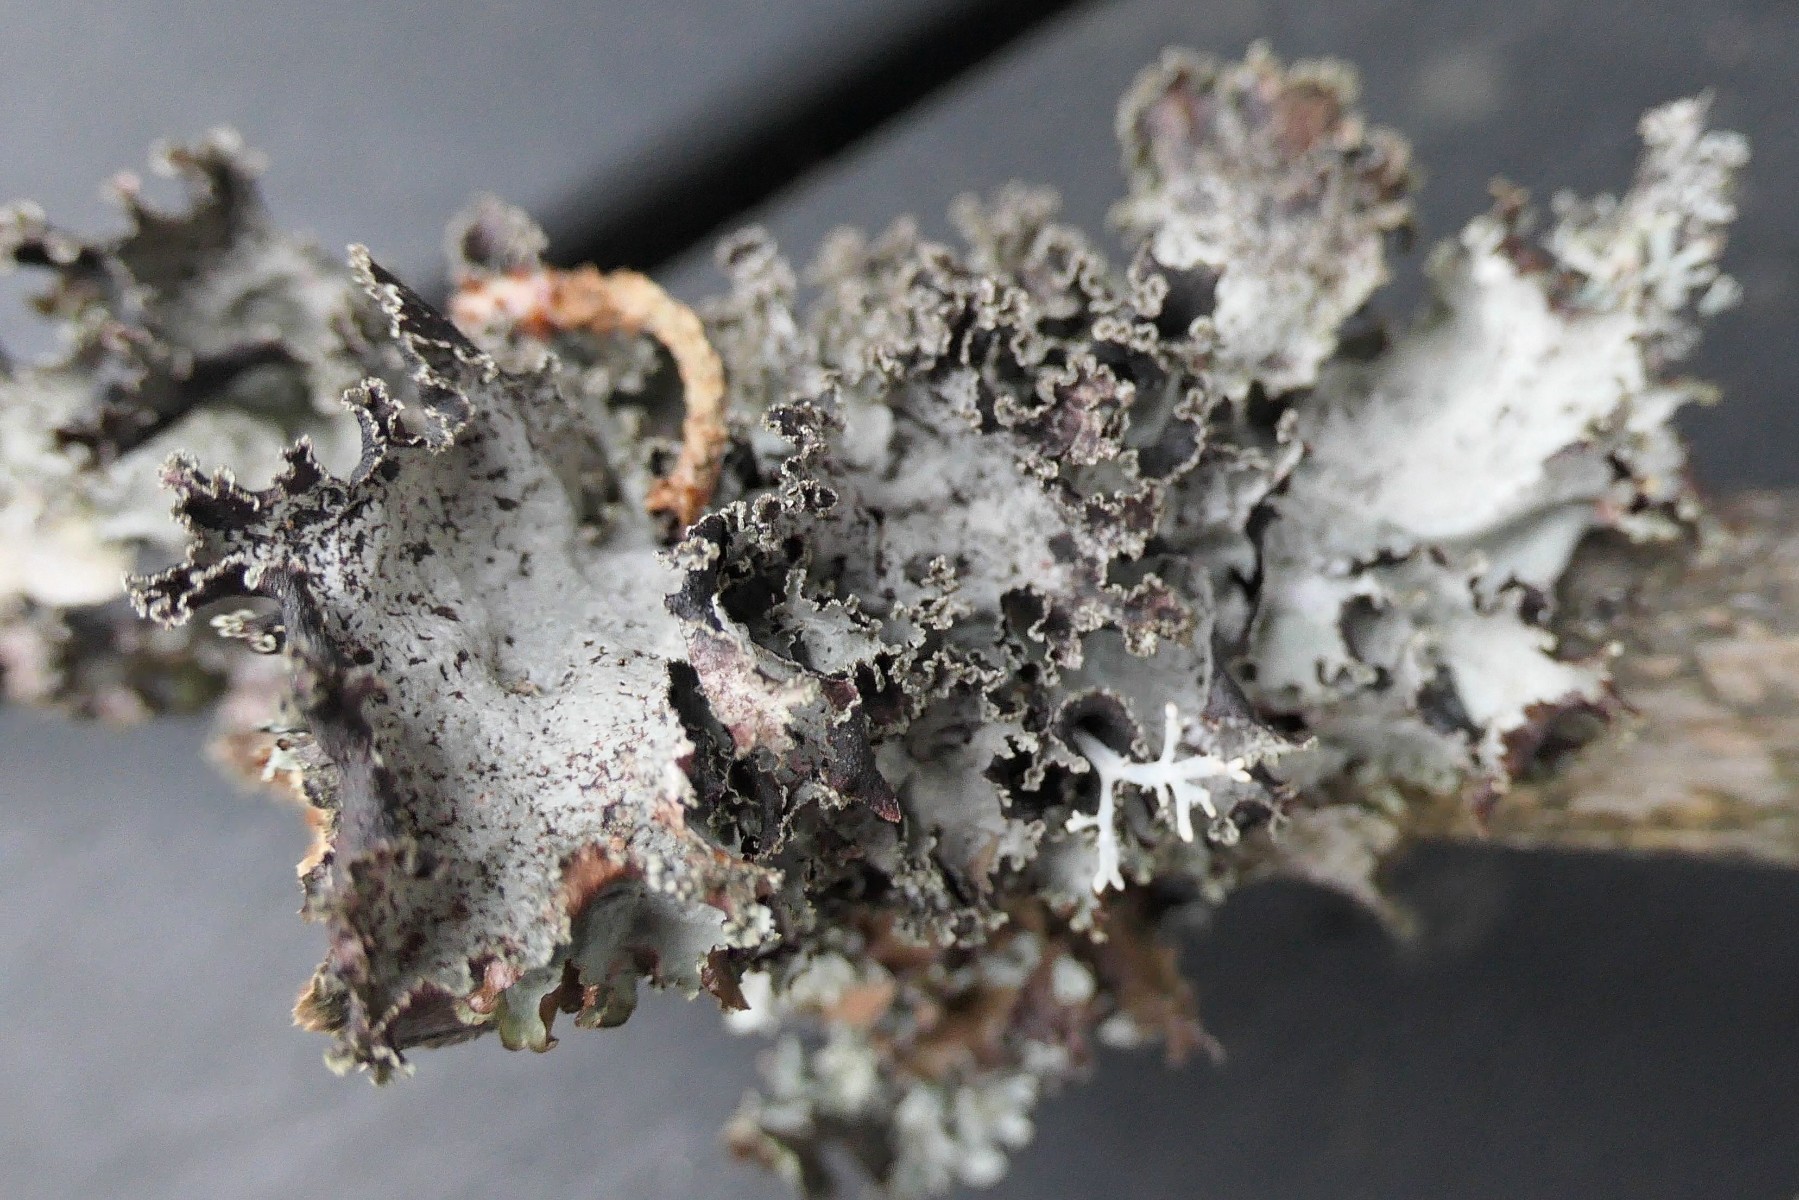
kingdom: Fungi
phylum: Ascomycota
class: Lecanoromycetes
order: Lecanorales
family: Parmeliaceae
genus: Platismatia
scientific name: Platismatia glauca
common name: blågrå papirlav
